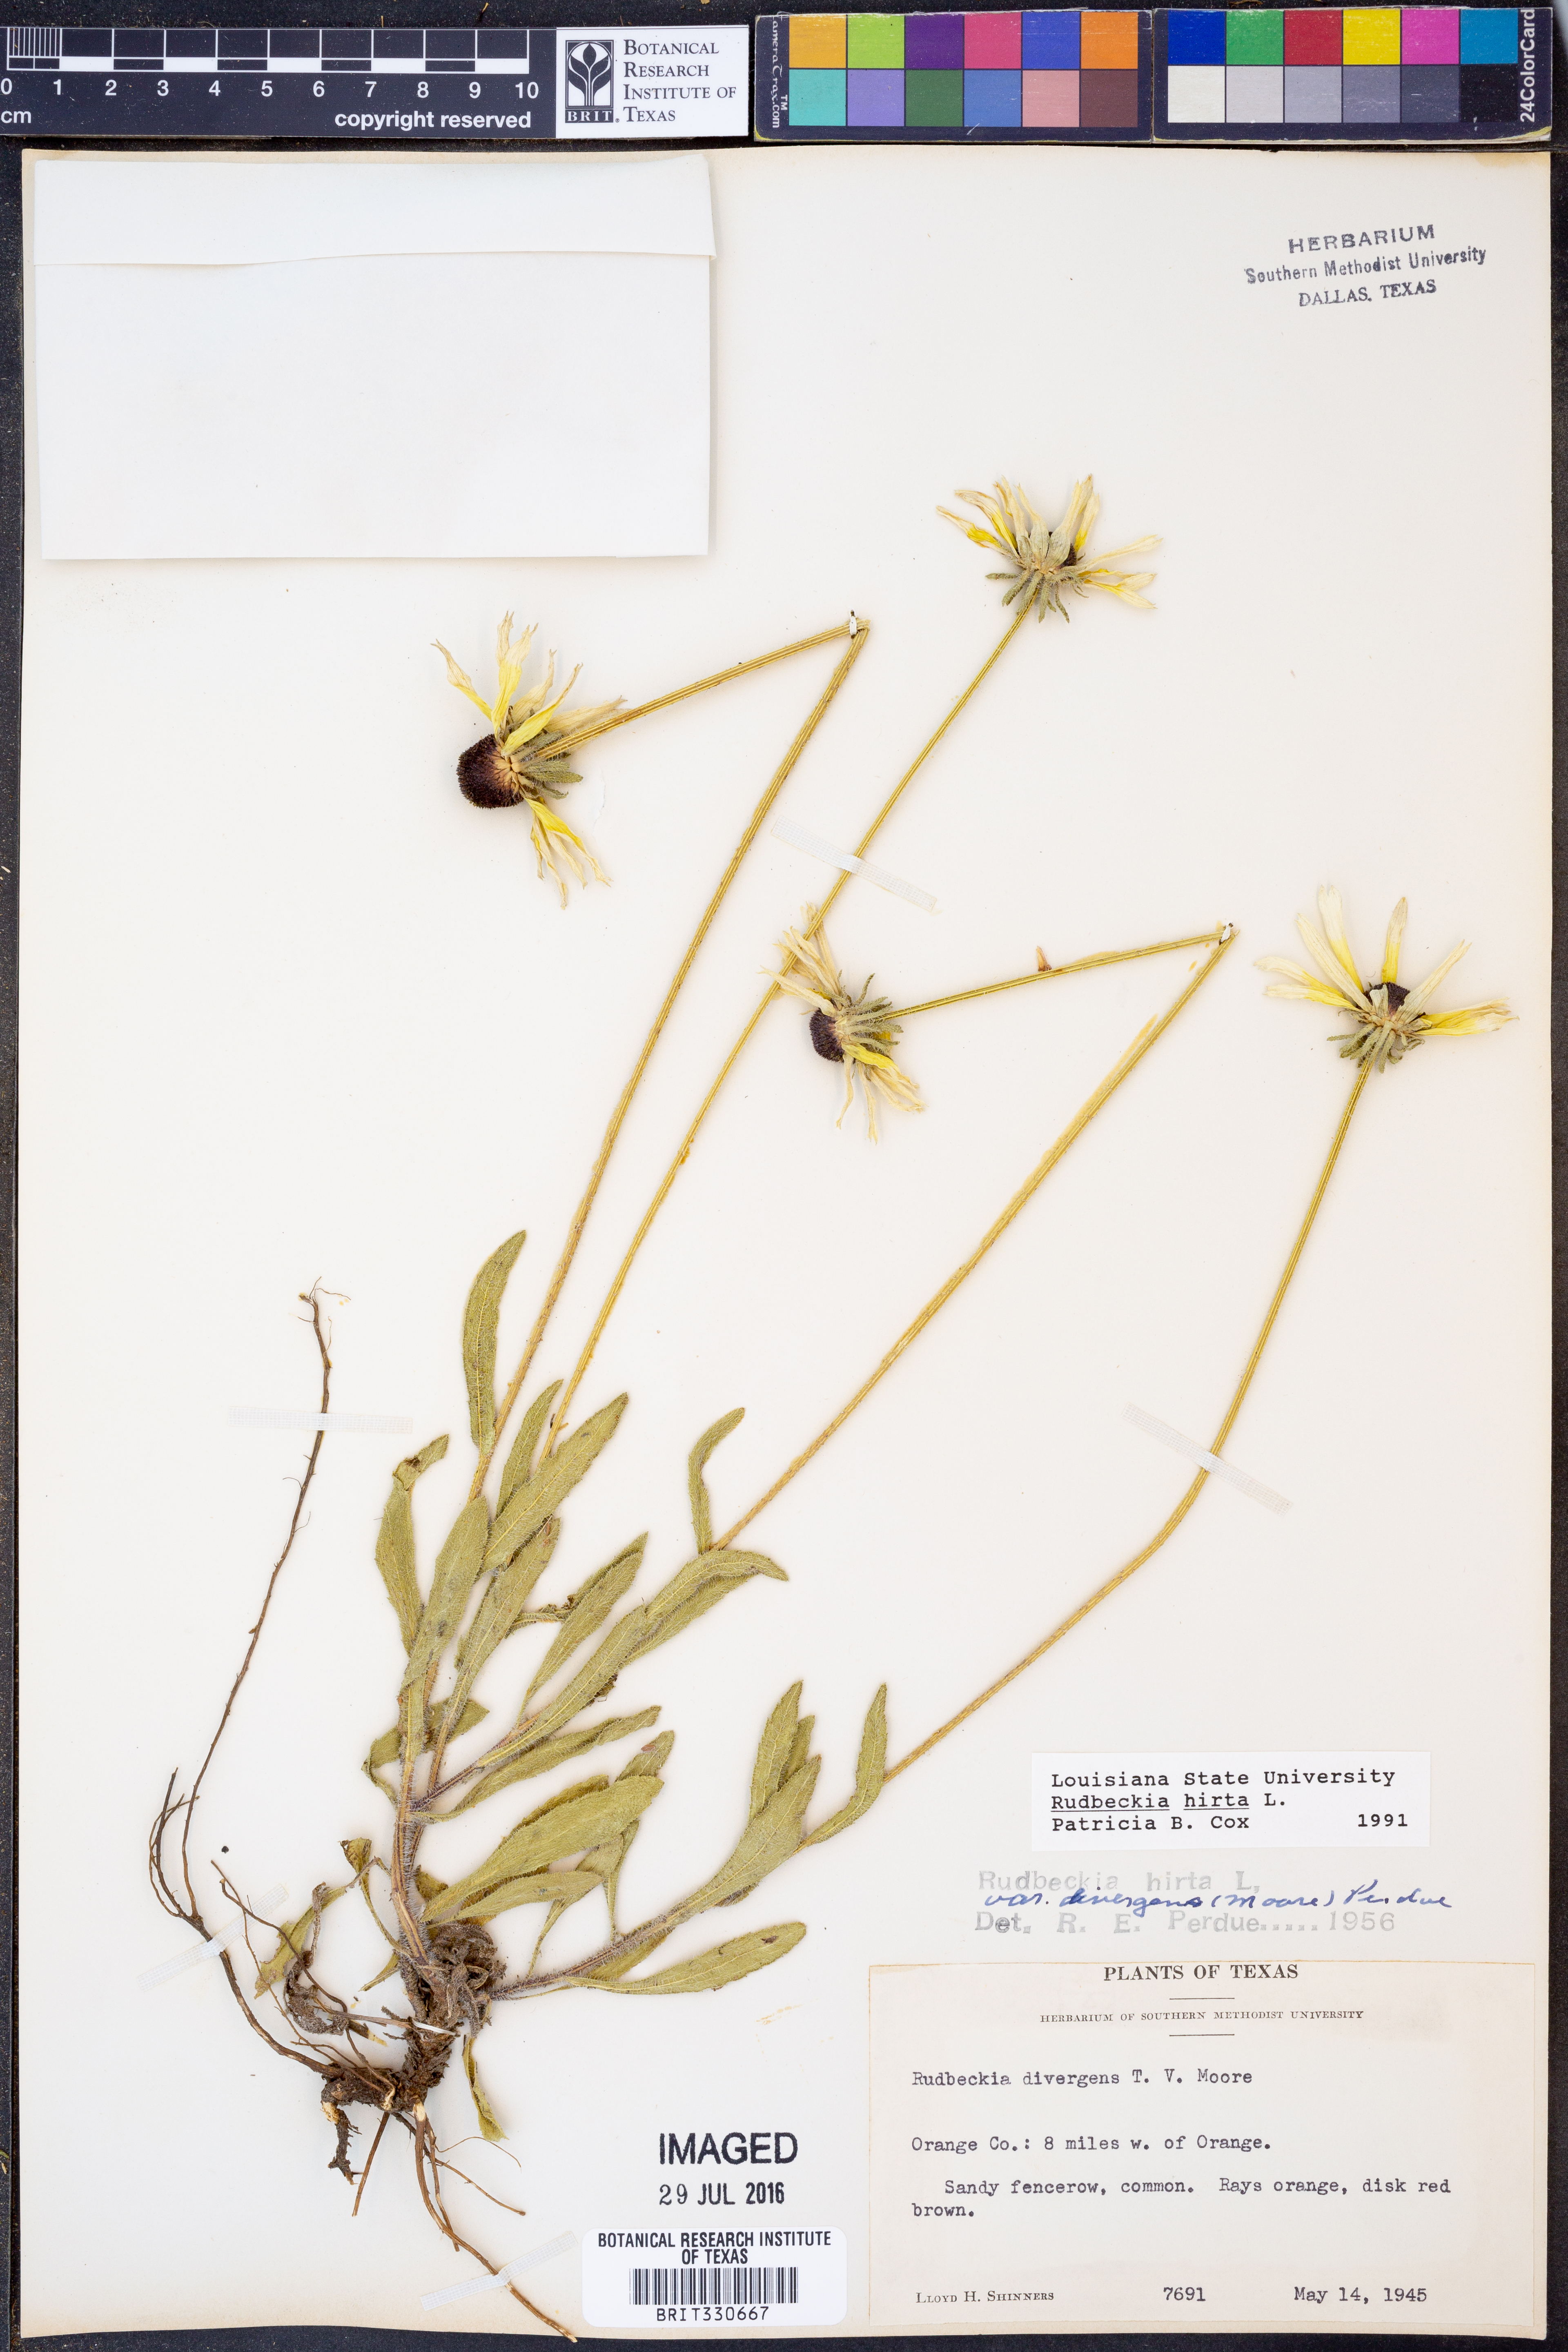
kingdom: Plantae
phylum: Tracheophyta
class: Magnoliopsida
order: Asterales
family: Asteraceae
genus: Rudbeckia
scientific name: Rudbeckia hirta
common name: Black-eyed-susan
